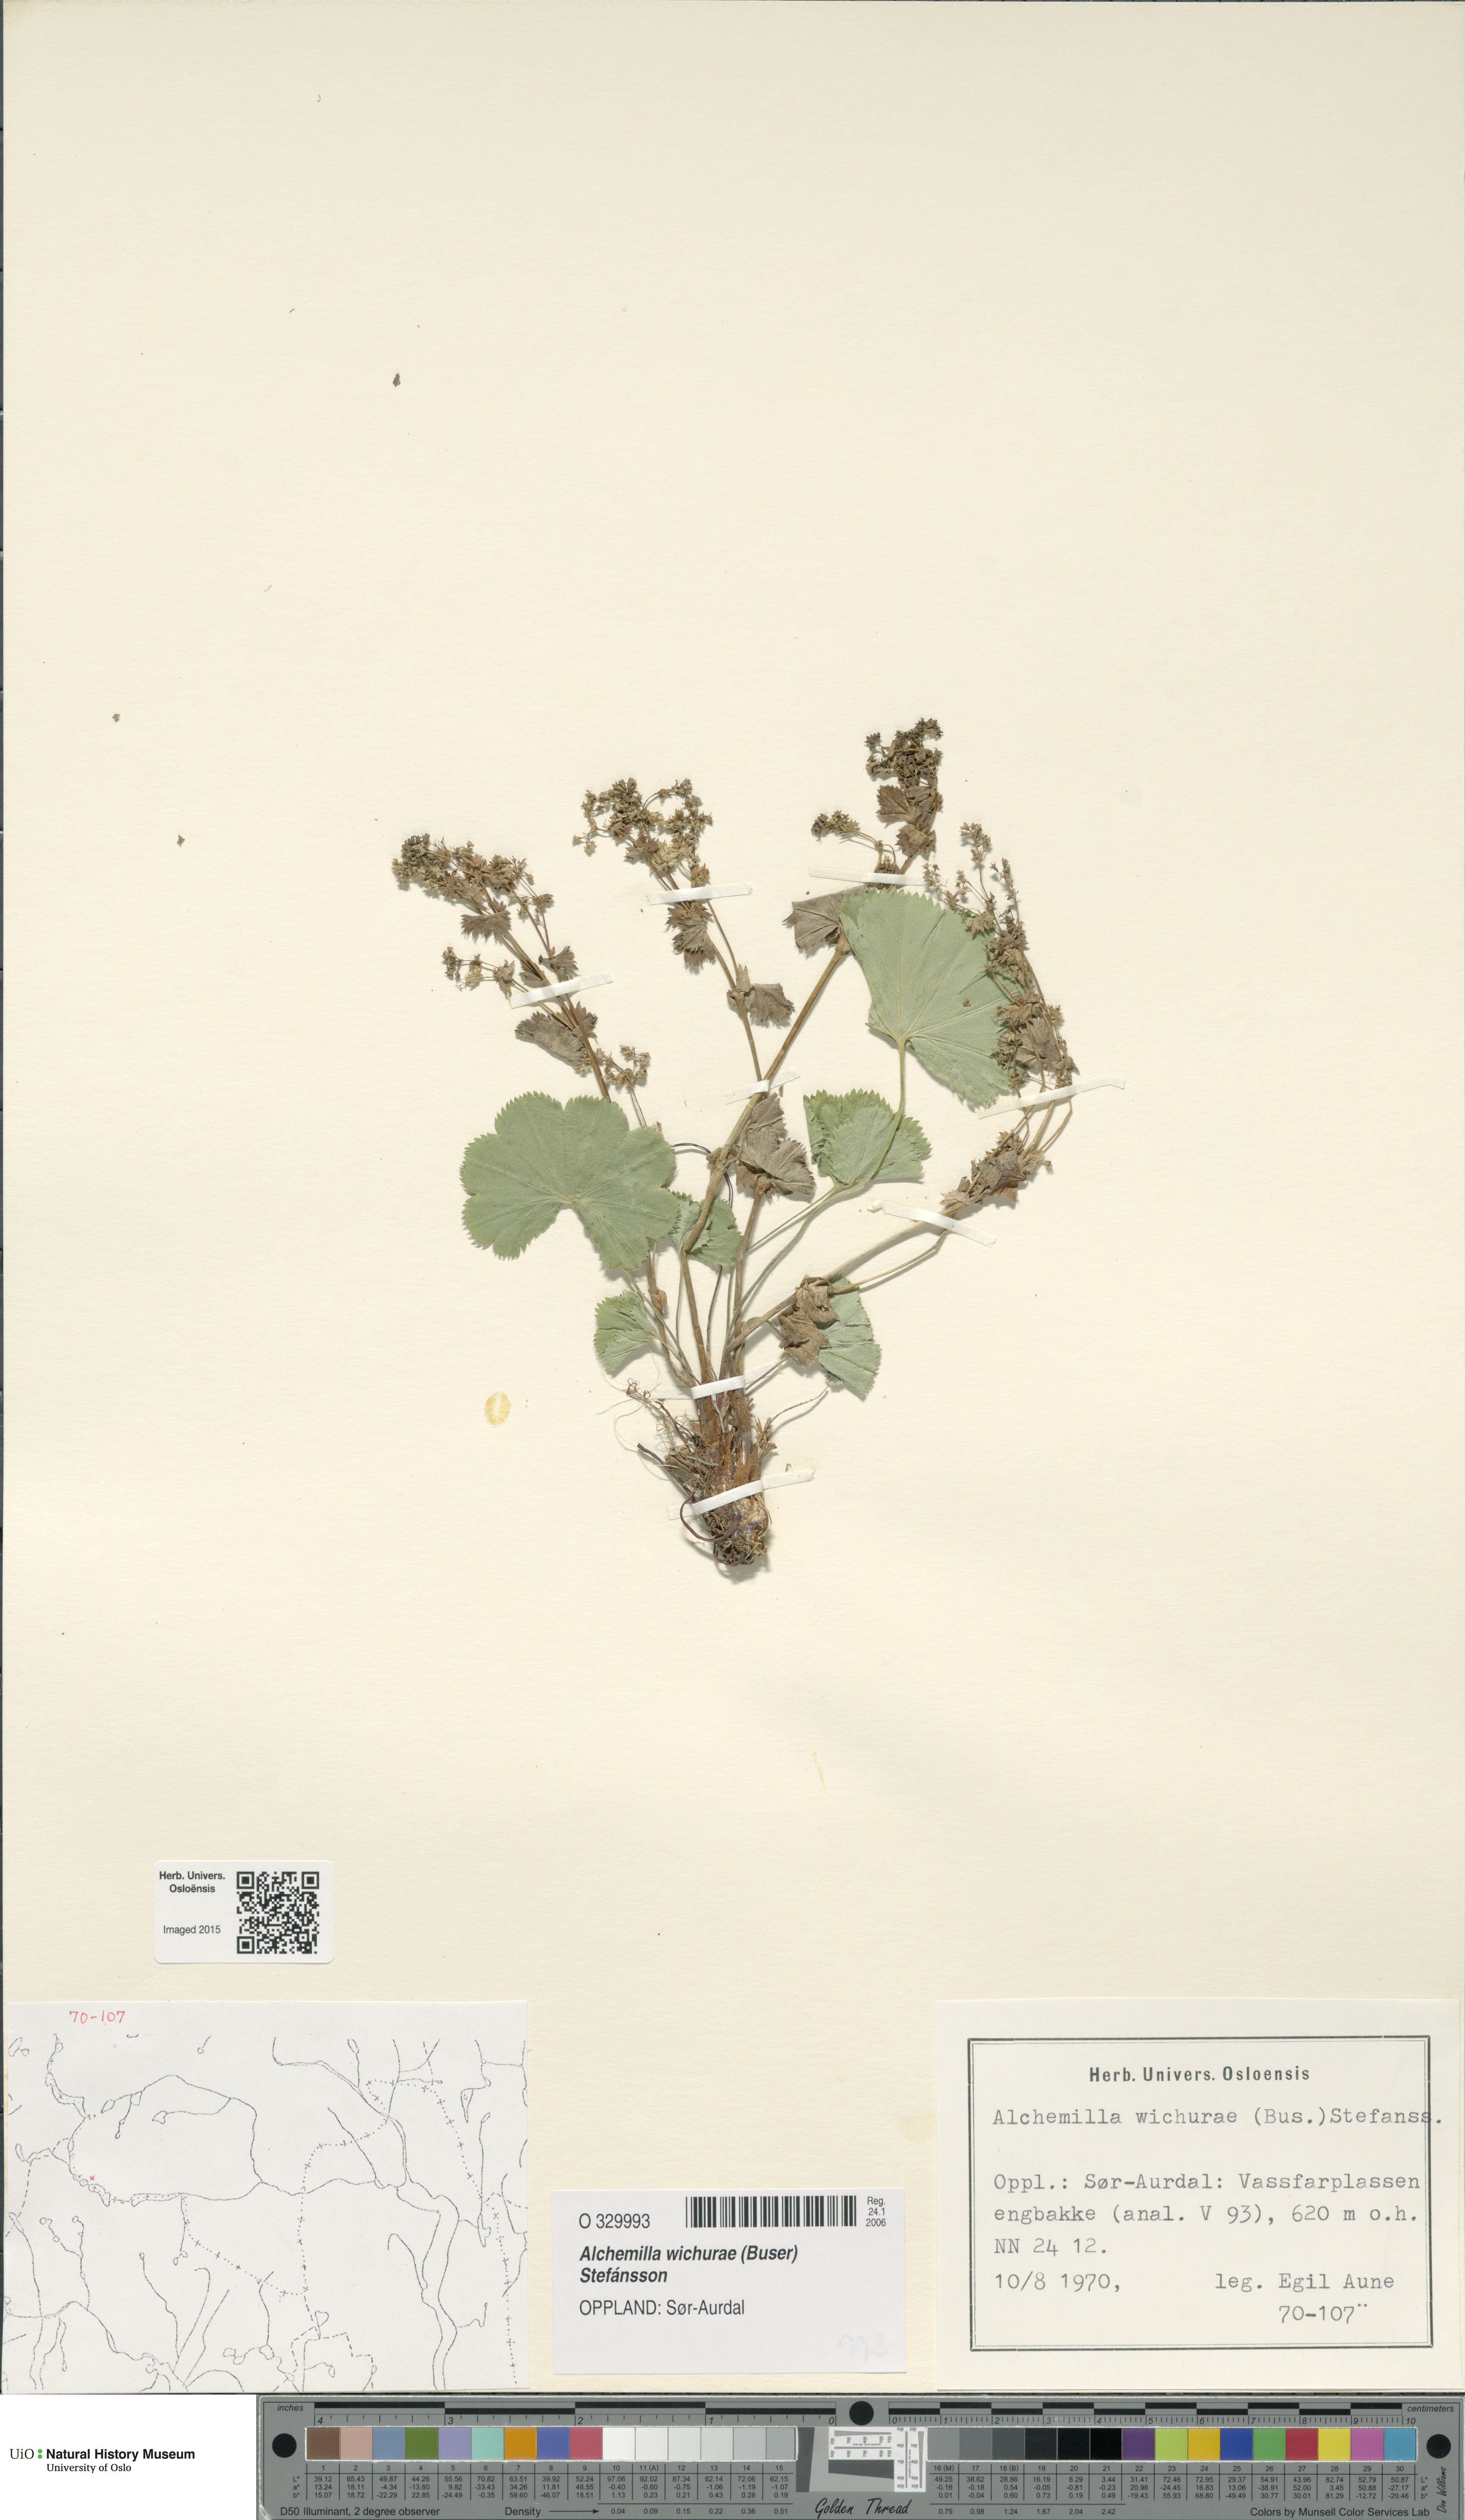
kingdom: Plantae
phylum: Tracheophyta
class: Magnoliopsida
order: Rosales
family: Rosaceae
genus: Alchemilla
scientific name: Alchemilla wichurae
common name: Rock lady's mantle
